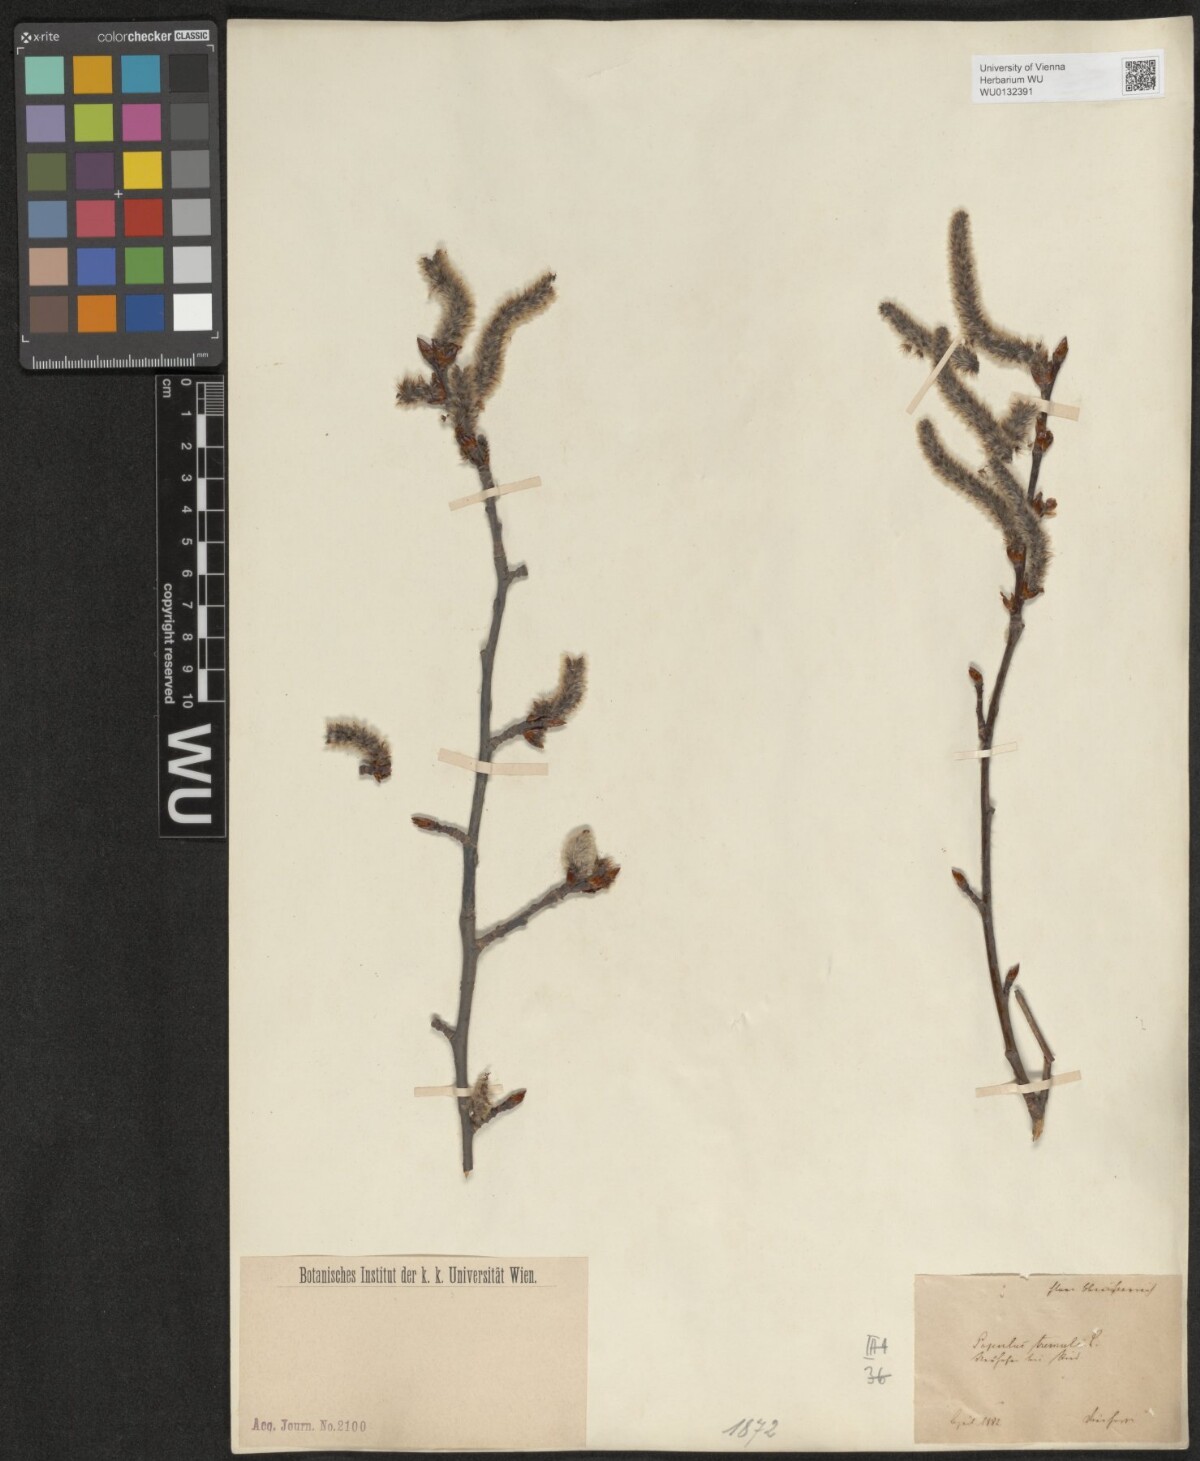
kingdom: Plantae
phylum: Tracheophyta
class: Magnoliopsida
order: Malpighiales
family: Salicaceae
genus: Populus
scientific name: Populus tremula
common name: European aspen
